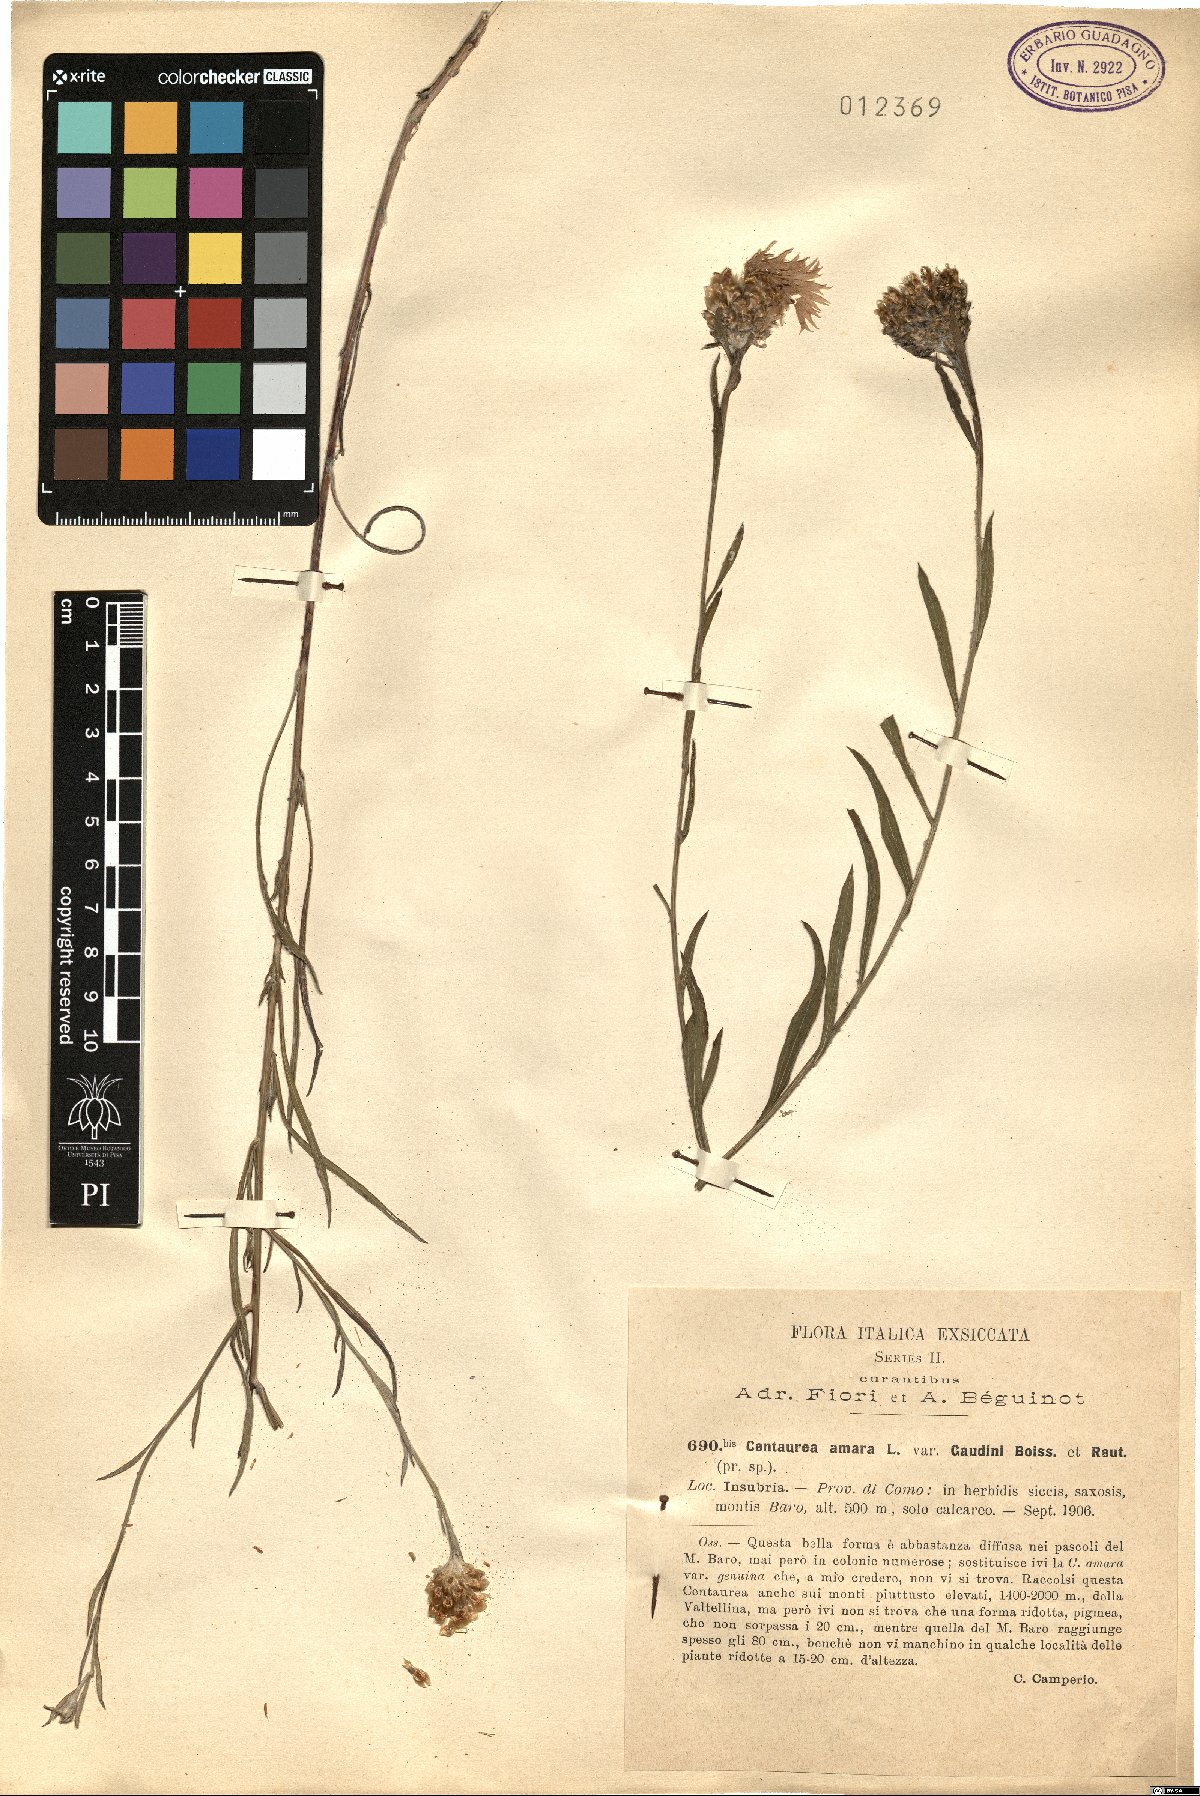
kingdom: Plantae
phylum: Tracheophyta
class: Magnoliopsida
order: Asterales
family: Asteraceae
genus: Centaurea
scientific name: Centaurea jacea
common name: Brown knapweed
